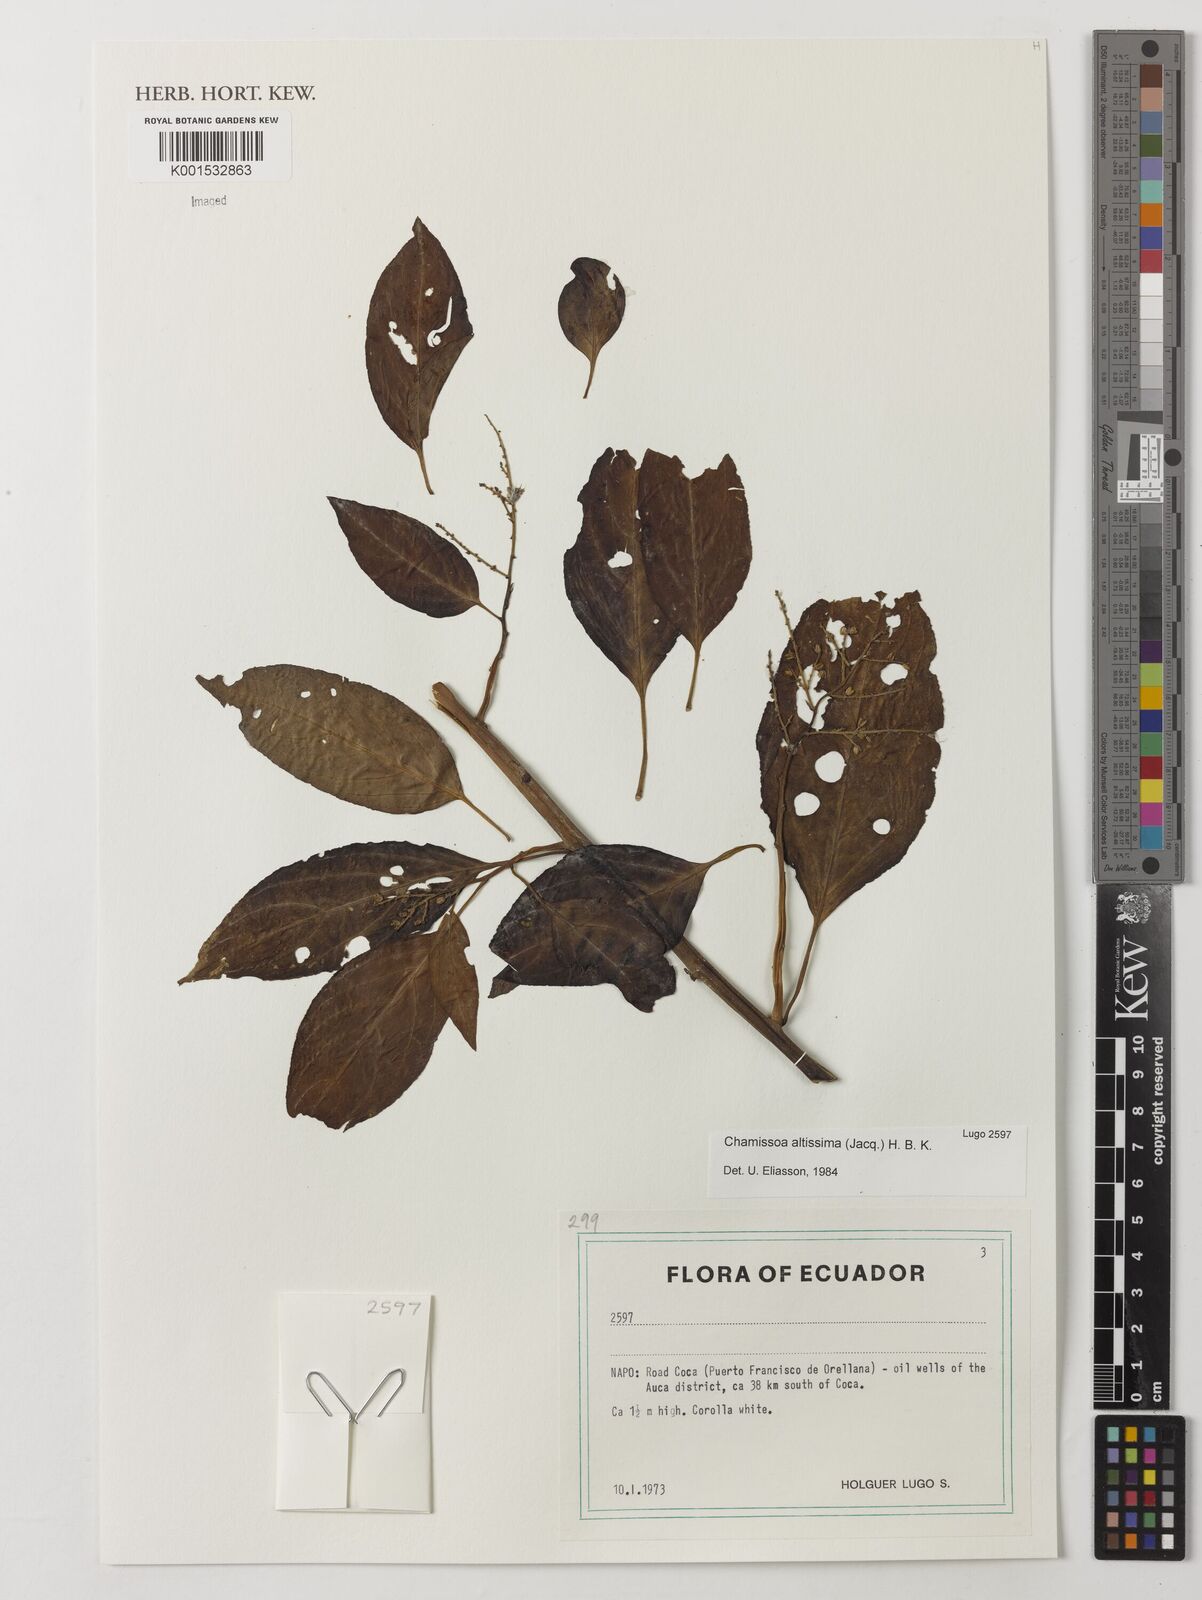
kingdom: Plantae
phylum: Tracheophyta
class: Magnoliopsida
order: Caryophyllales
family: Amaranthaceae
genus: Chamissoa
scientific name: Chamissoa altissima
